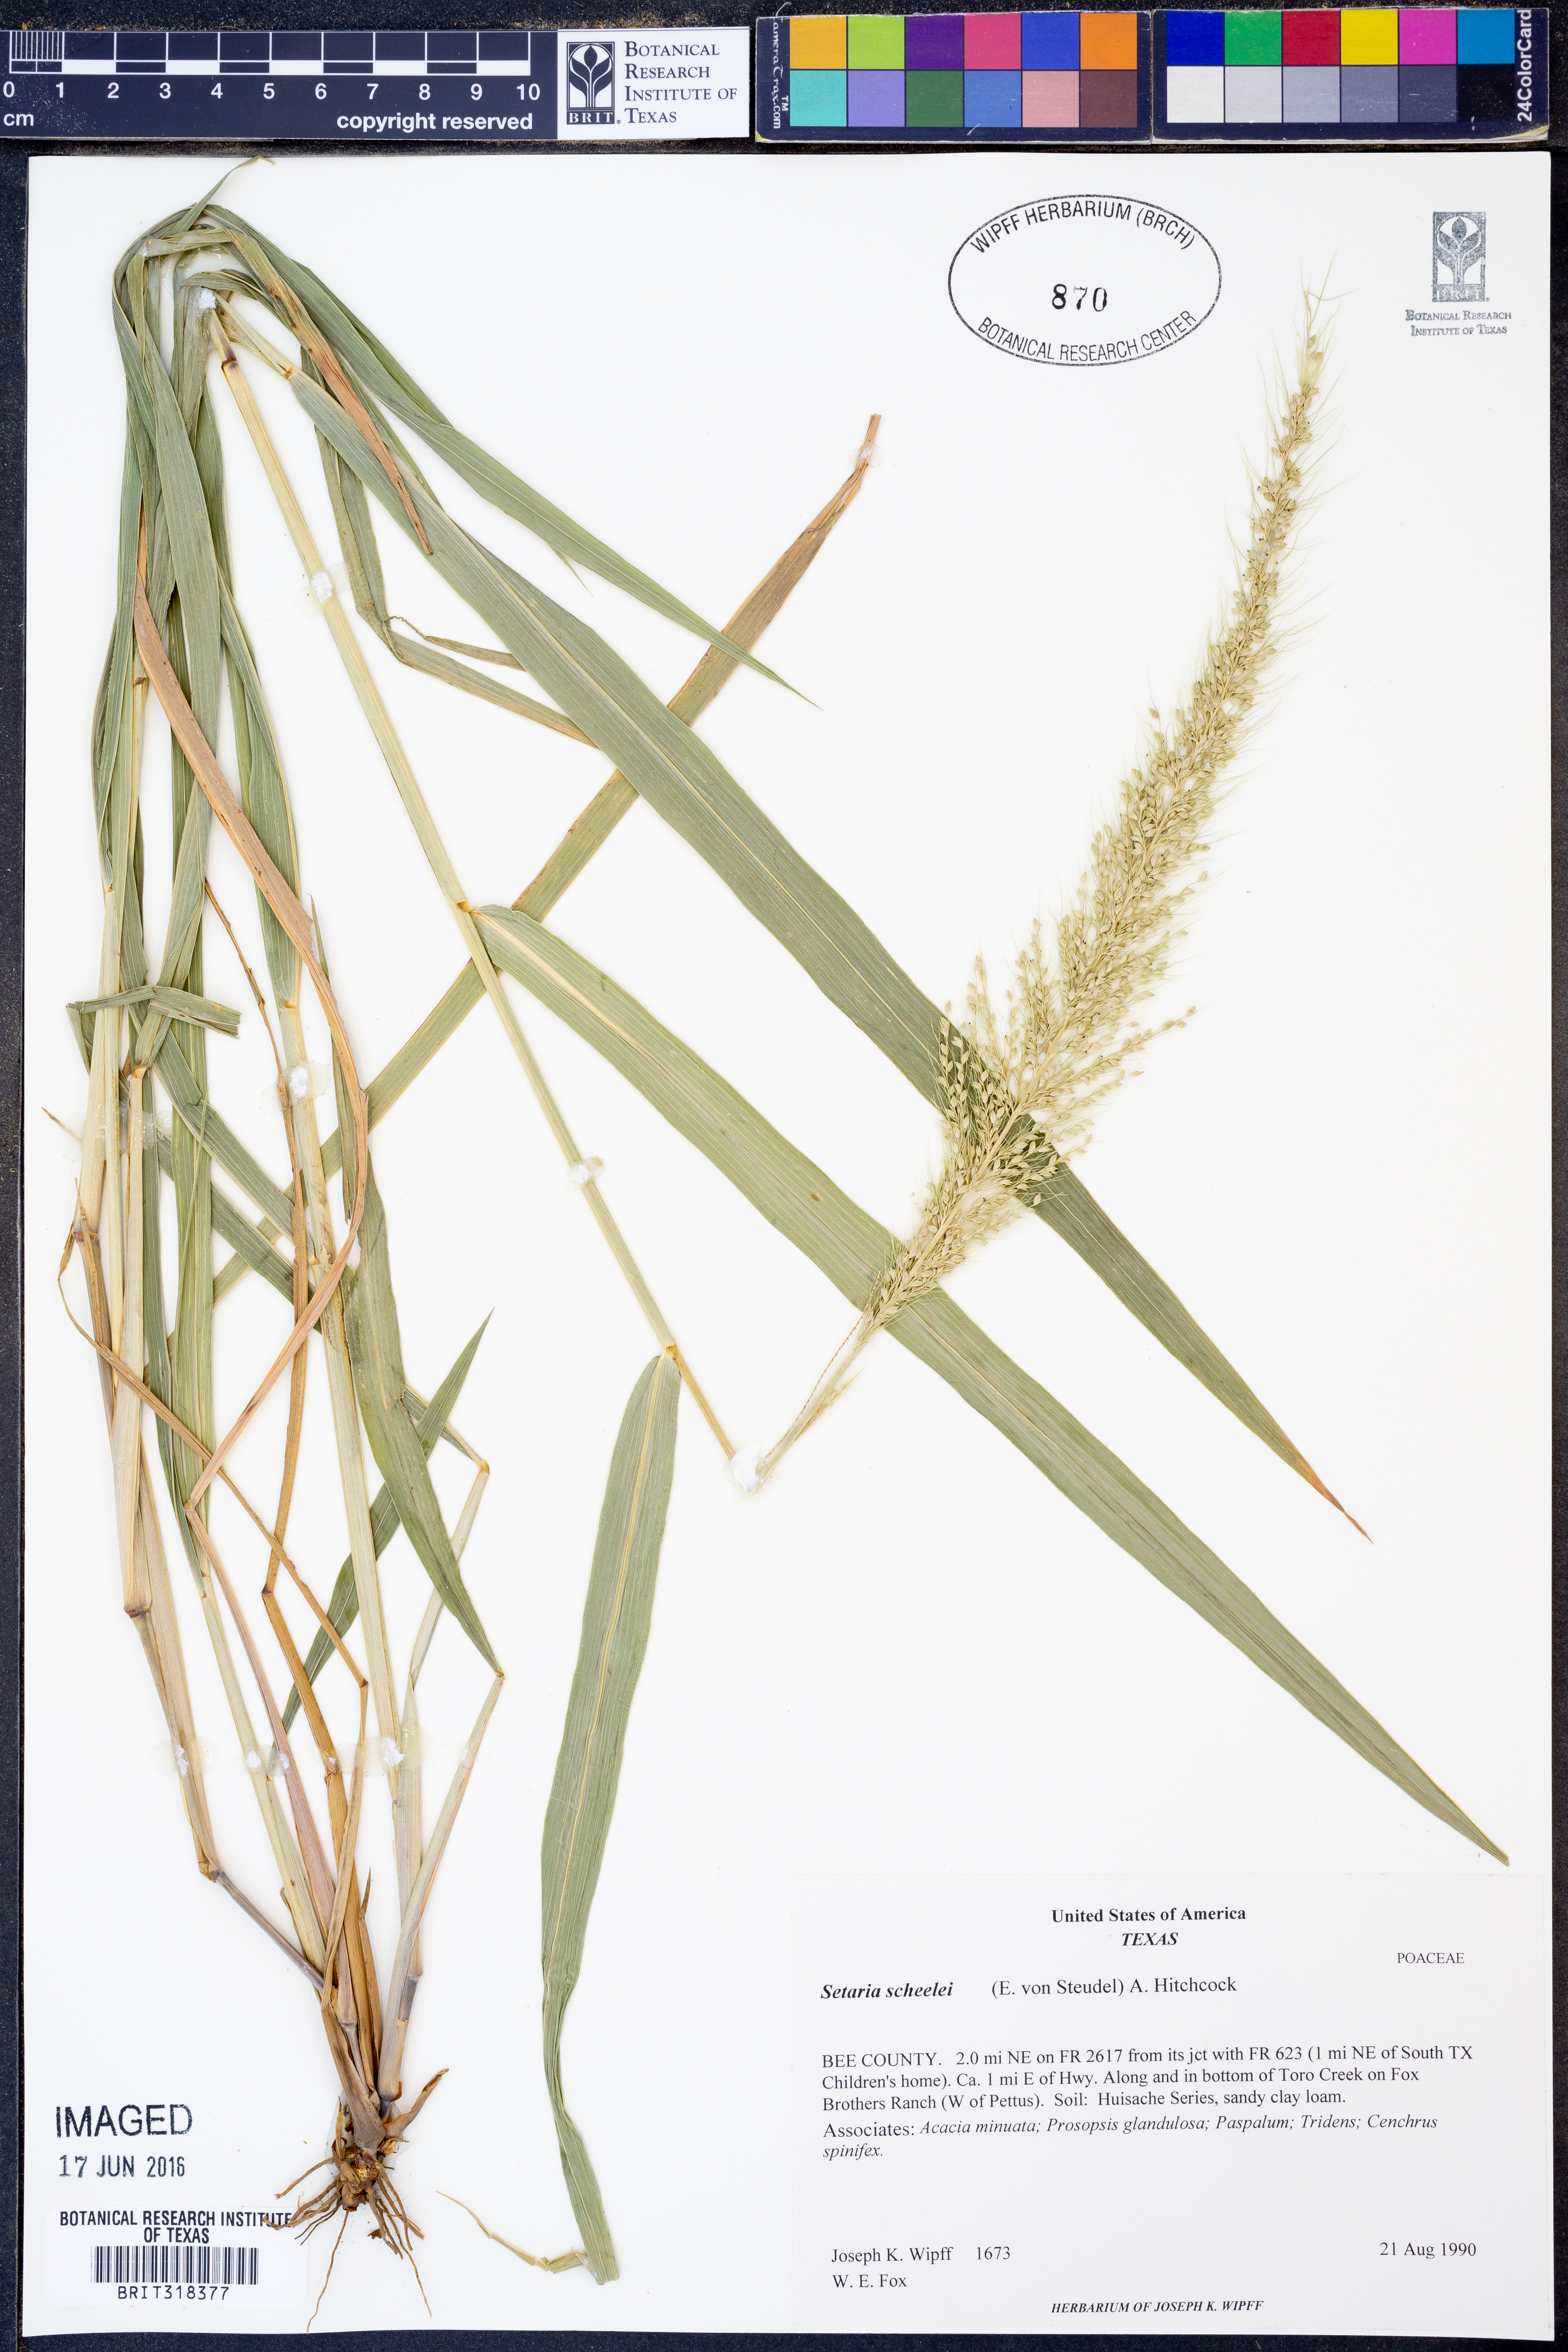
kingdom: Plantae
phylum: Tracheophyta
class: Liliopsida
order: Poales
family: Poaceae
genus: Setaria
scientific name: Setaria scheelei
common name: Southwestern bristle grass
